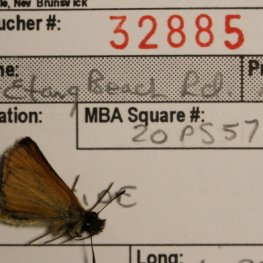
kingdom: Animalia
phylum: Arthropoda
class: Insecta
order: Lepidoptera
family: Hesperiidae
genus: Thymelicus
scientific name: Thymelicus lineola
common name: European Skipper
